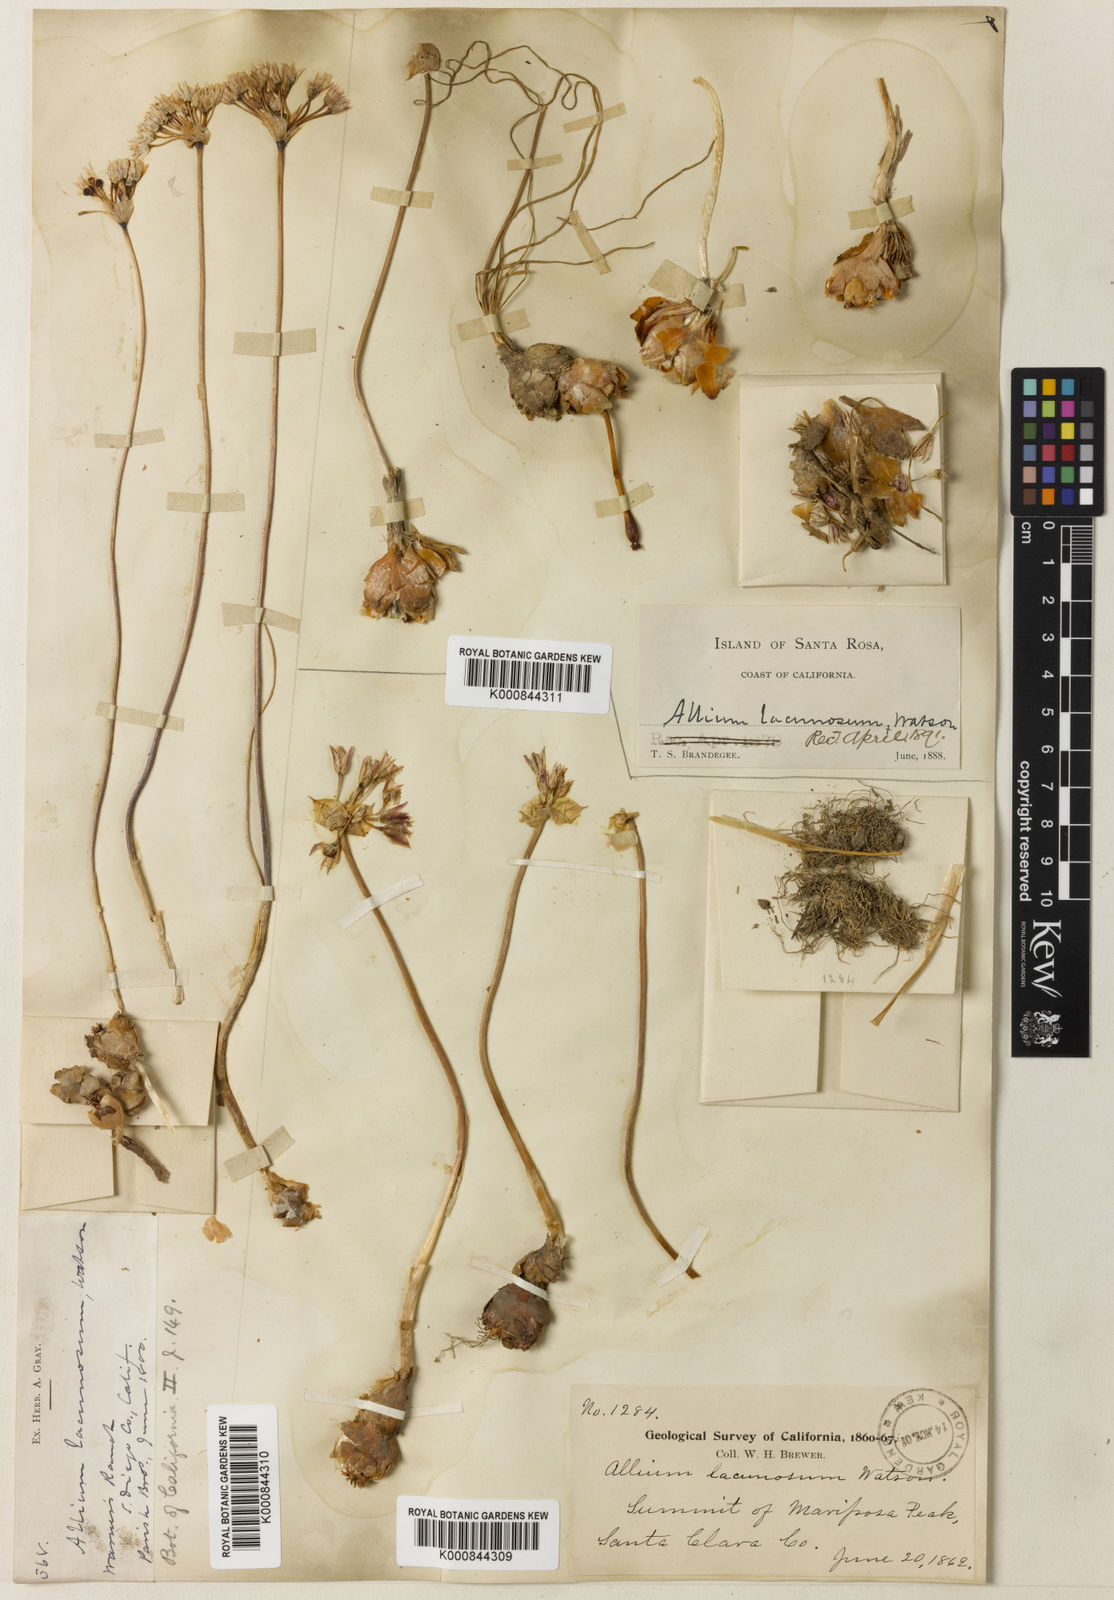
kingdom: Plantae
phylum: Tracheophyta
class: Liliopsida
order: Asparagales
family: Amaryllidaceae
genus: Allium
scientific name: Allium lacunosum
